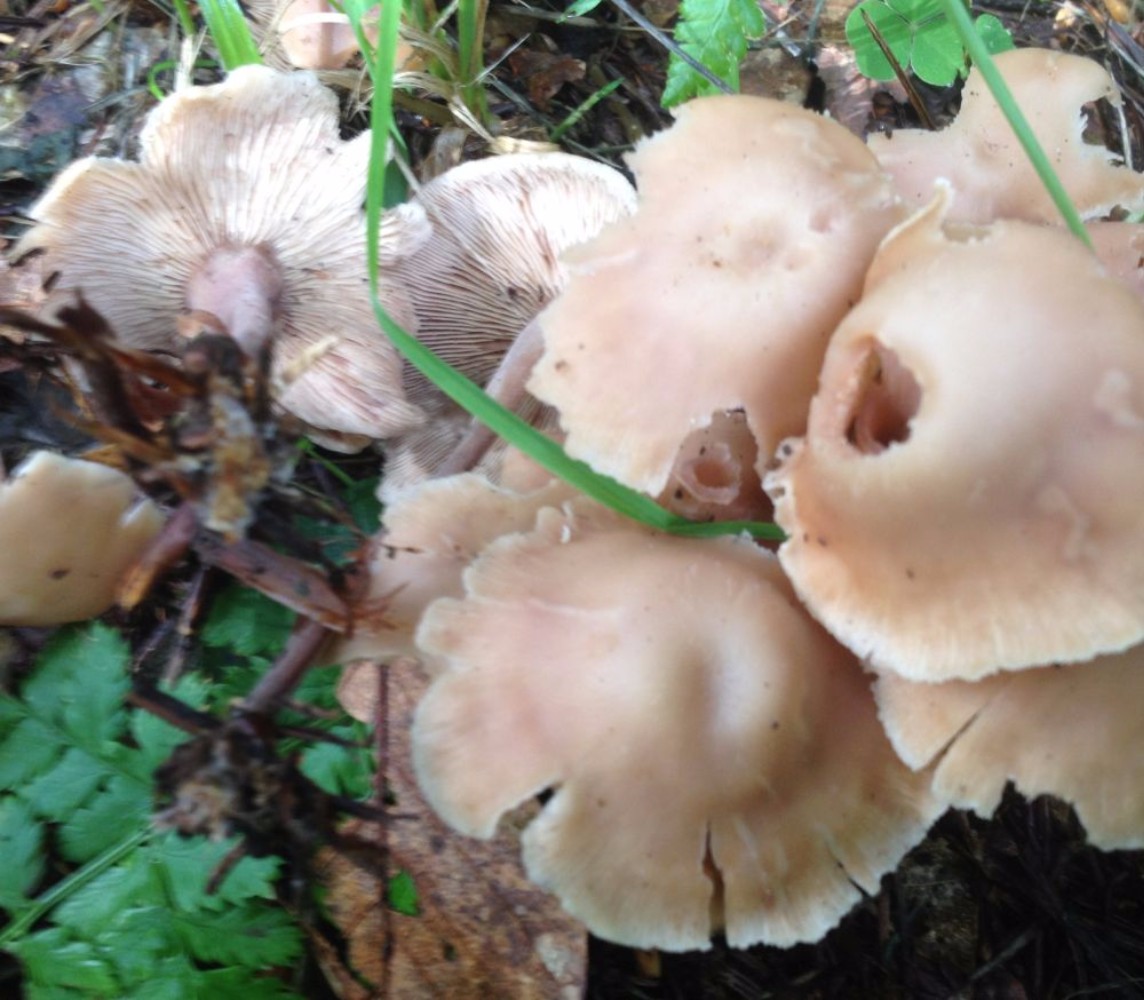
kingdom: Fungi
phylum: Basidiomycota
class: Agaricomycetes
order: Agaricales
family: Omphalotaceae
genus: Collybiopsis
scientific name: Collybiopsis confluens
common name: knippe-fladhat
